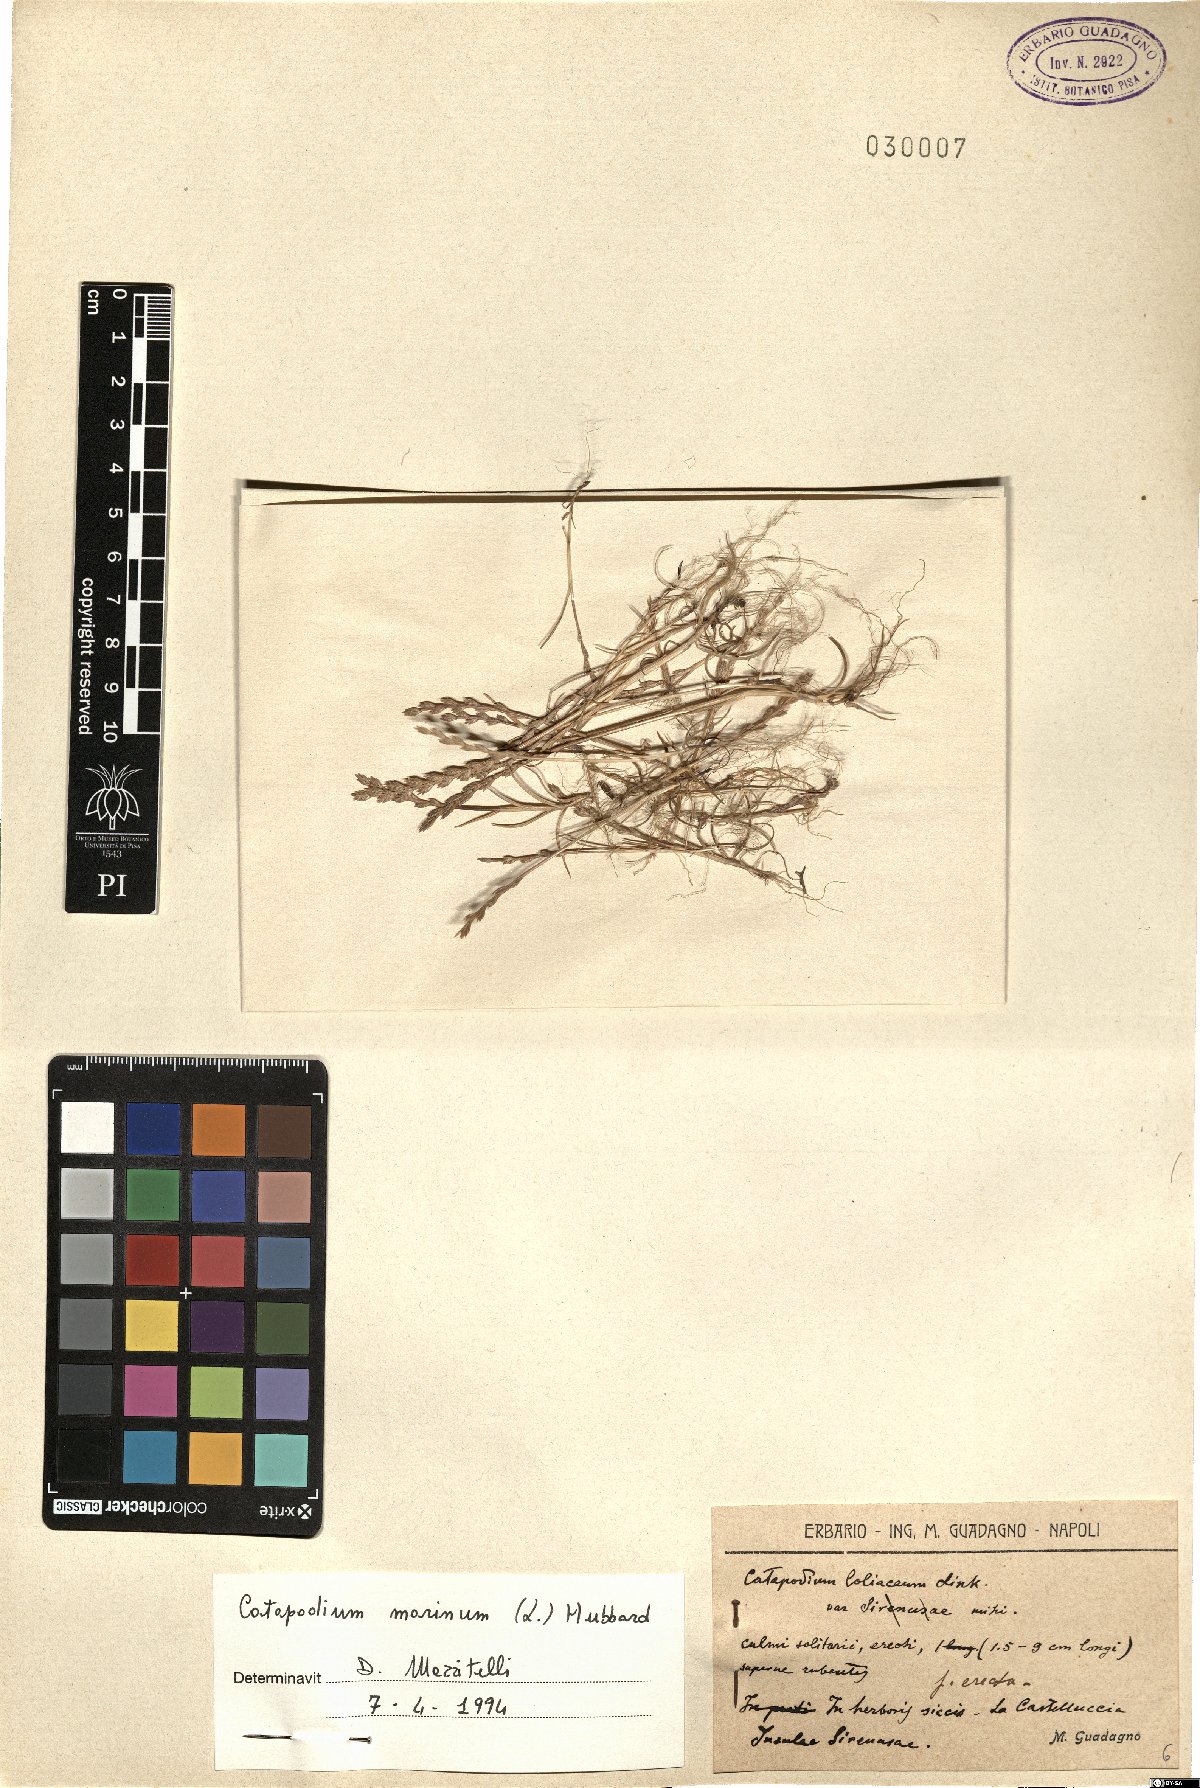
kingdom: Plantae
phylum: Tracheophyta
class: Liliopsida
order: Poales
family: Poaceae
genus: Catapodium
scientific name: Catapodium marinum
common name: Sea fern-grass
